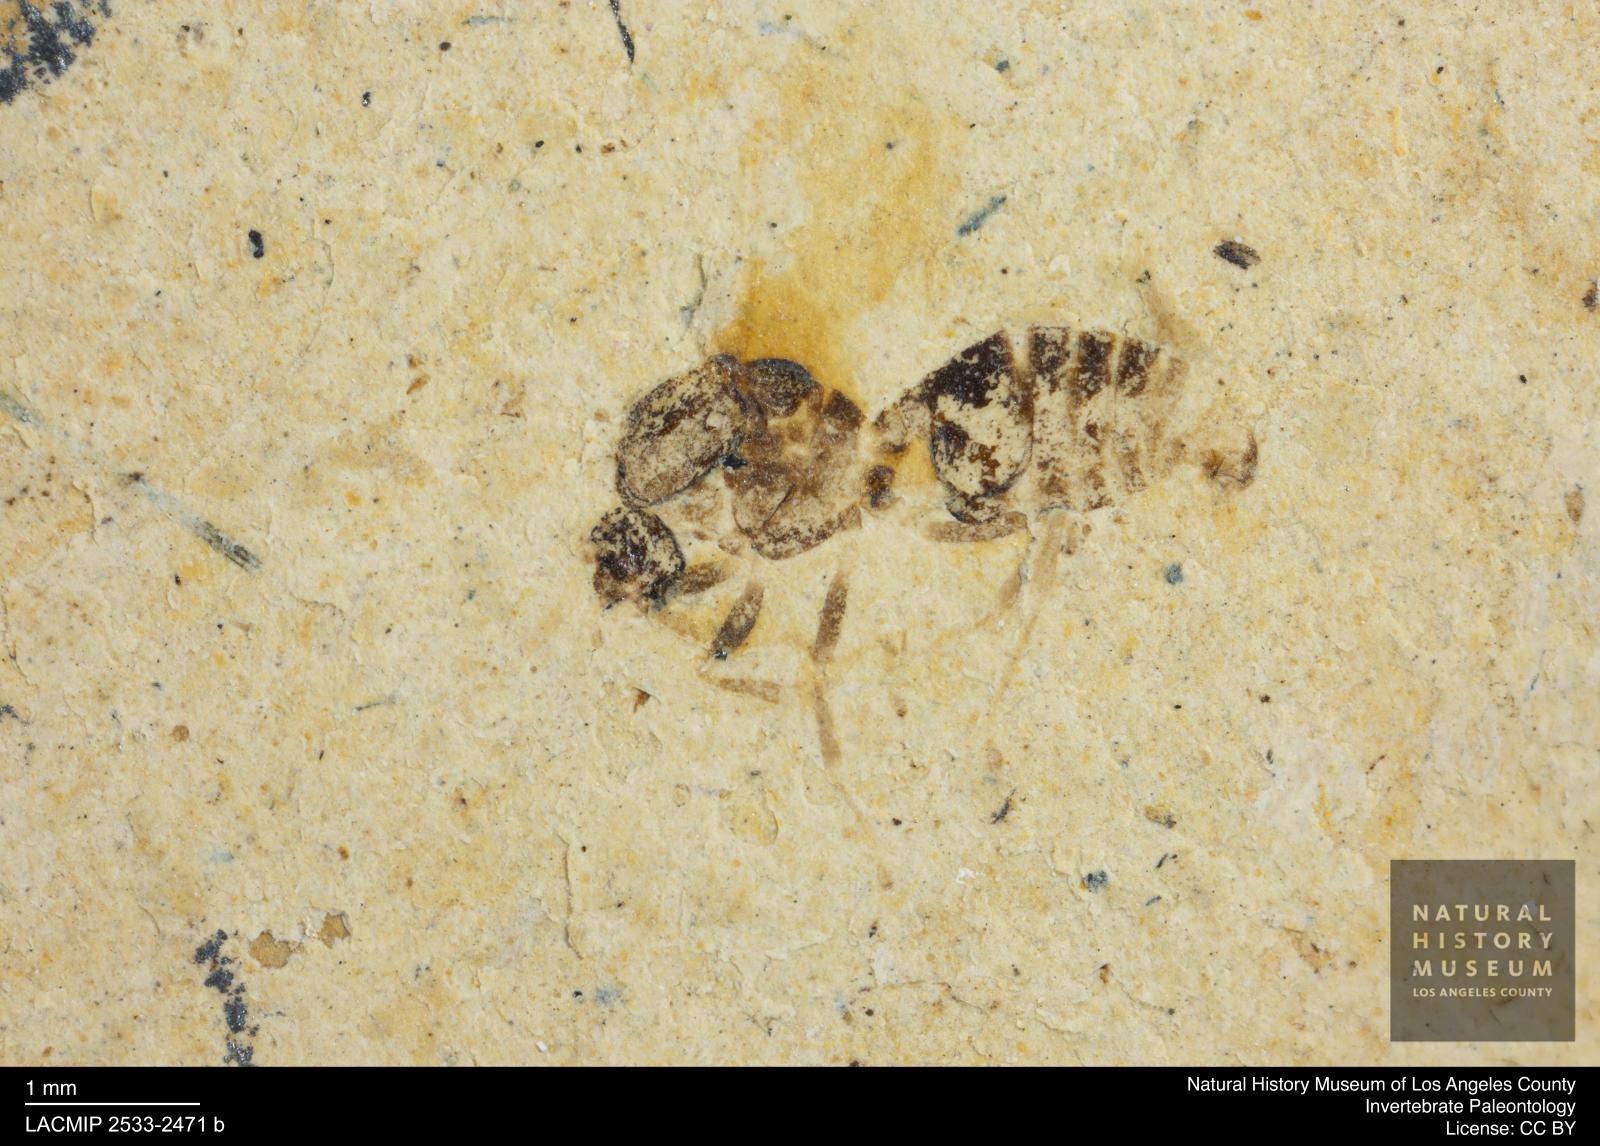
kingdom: Animalia
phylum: Arthropoda
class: Insecta
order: Hymenoptera
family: Formicidae
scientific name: Formicidae
